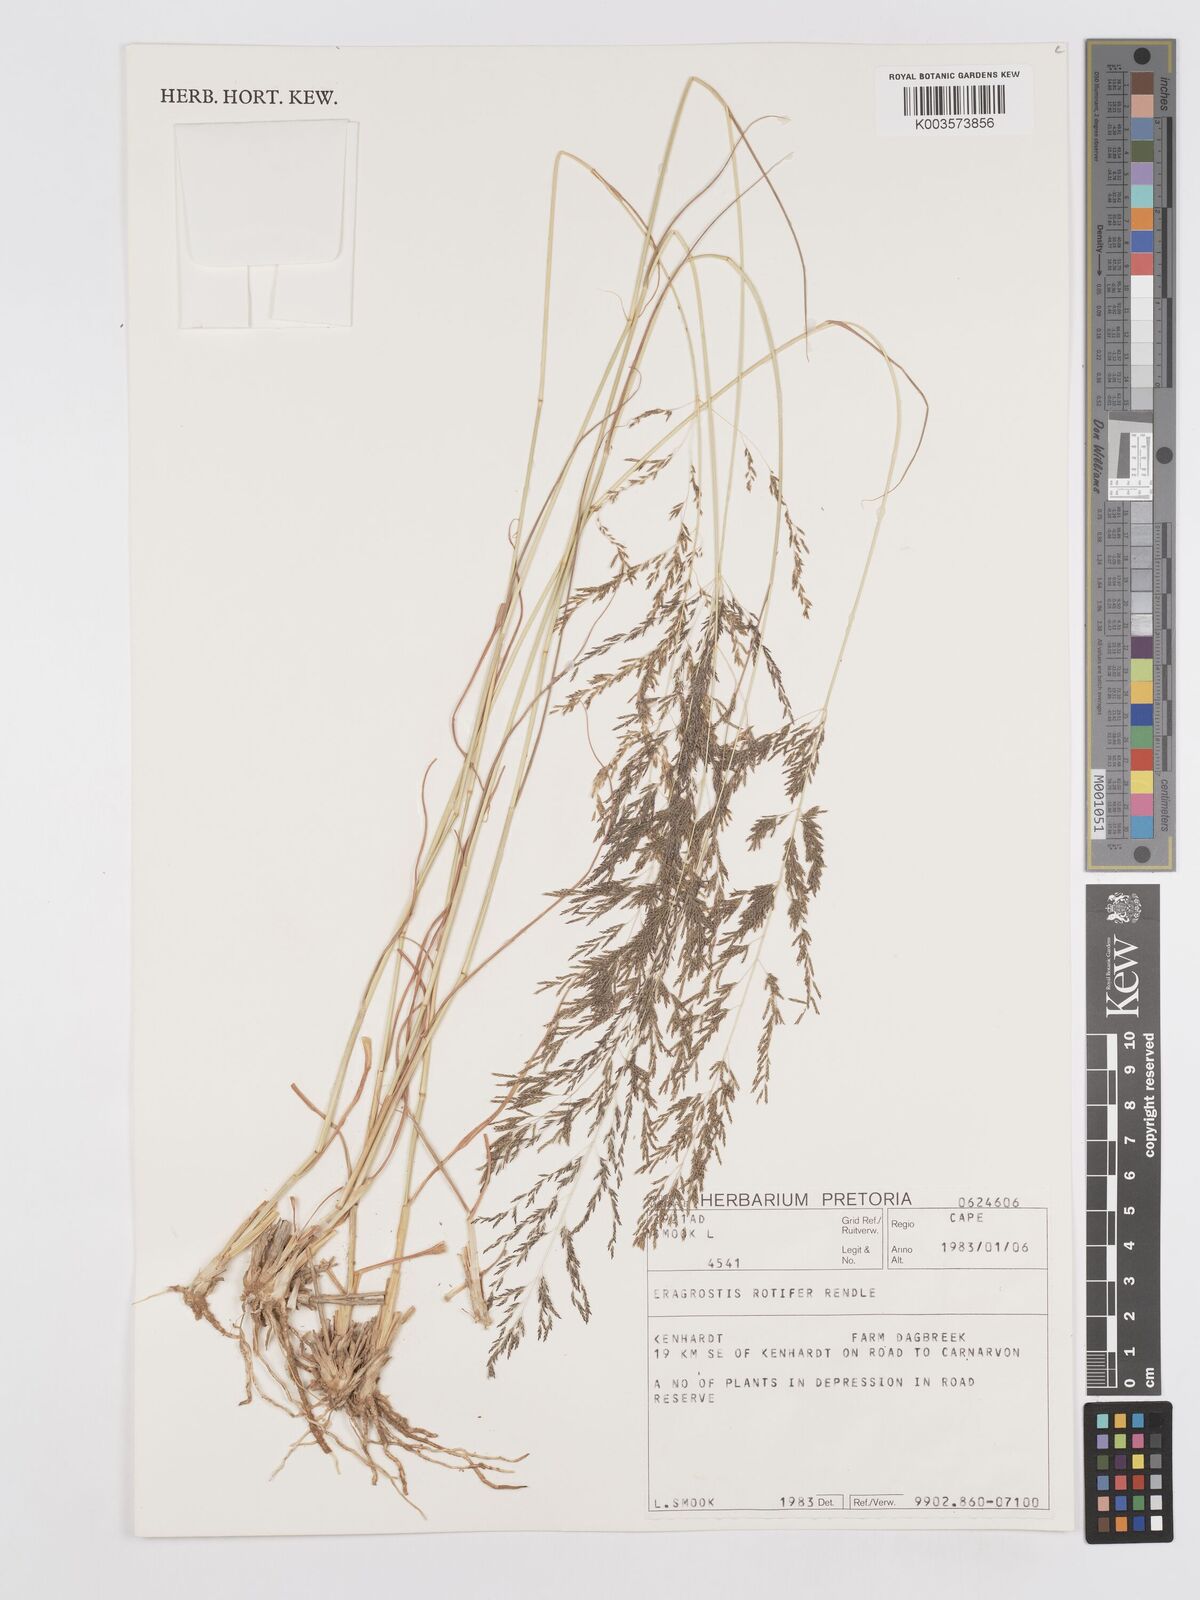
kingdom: Plantae
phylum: Tracheophyta
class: Liliopsida
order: Poales
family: Poaceae
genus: Eragrostis
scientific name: Eragrostis porosa
